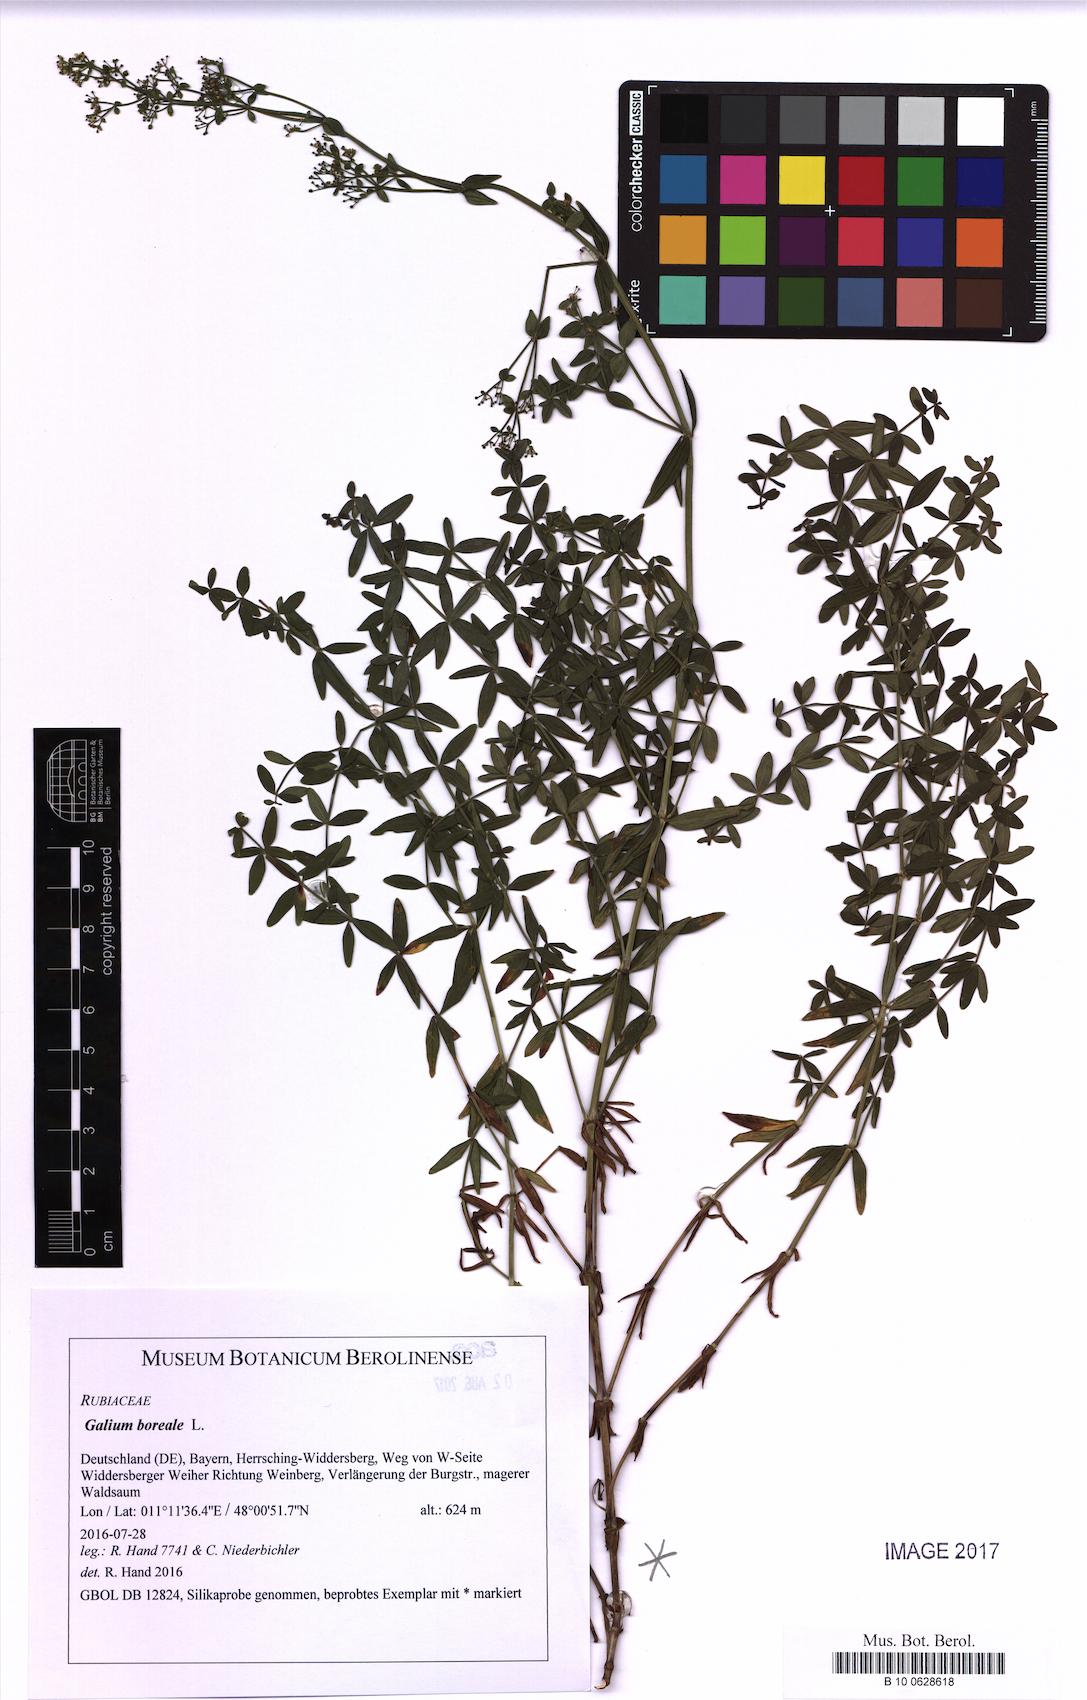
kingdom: Plantae
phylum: Tracheophyta
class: Magnoliopsida
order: Gentianales
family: Rubiaceae
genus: Galium
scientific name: Galium boreale
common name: Northern bedstraw
